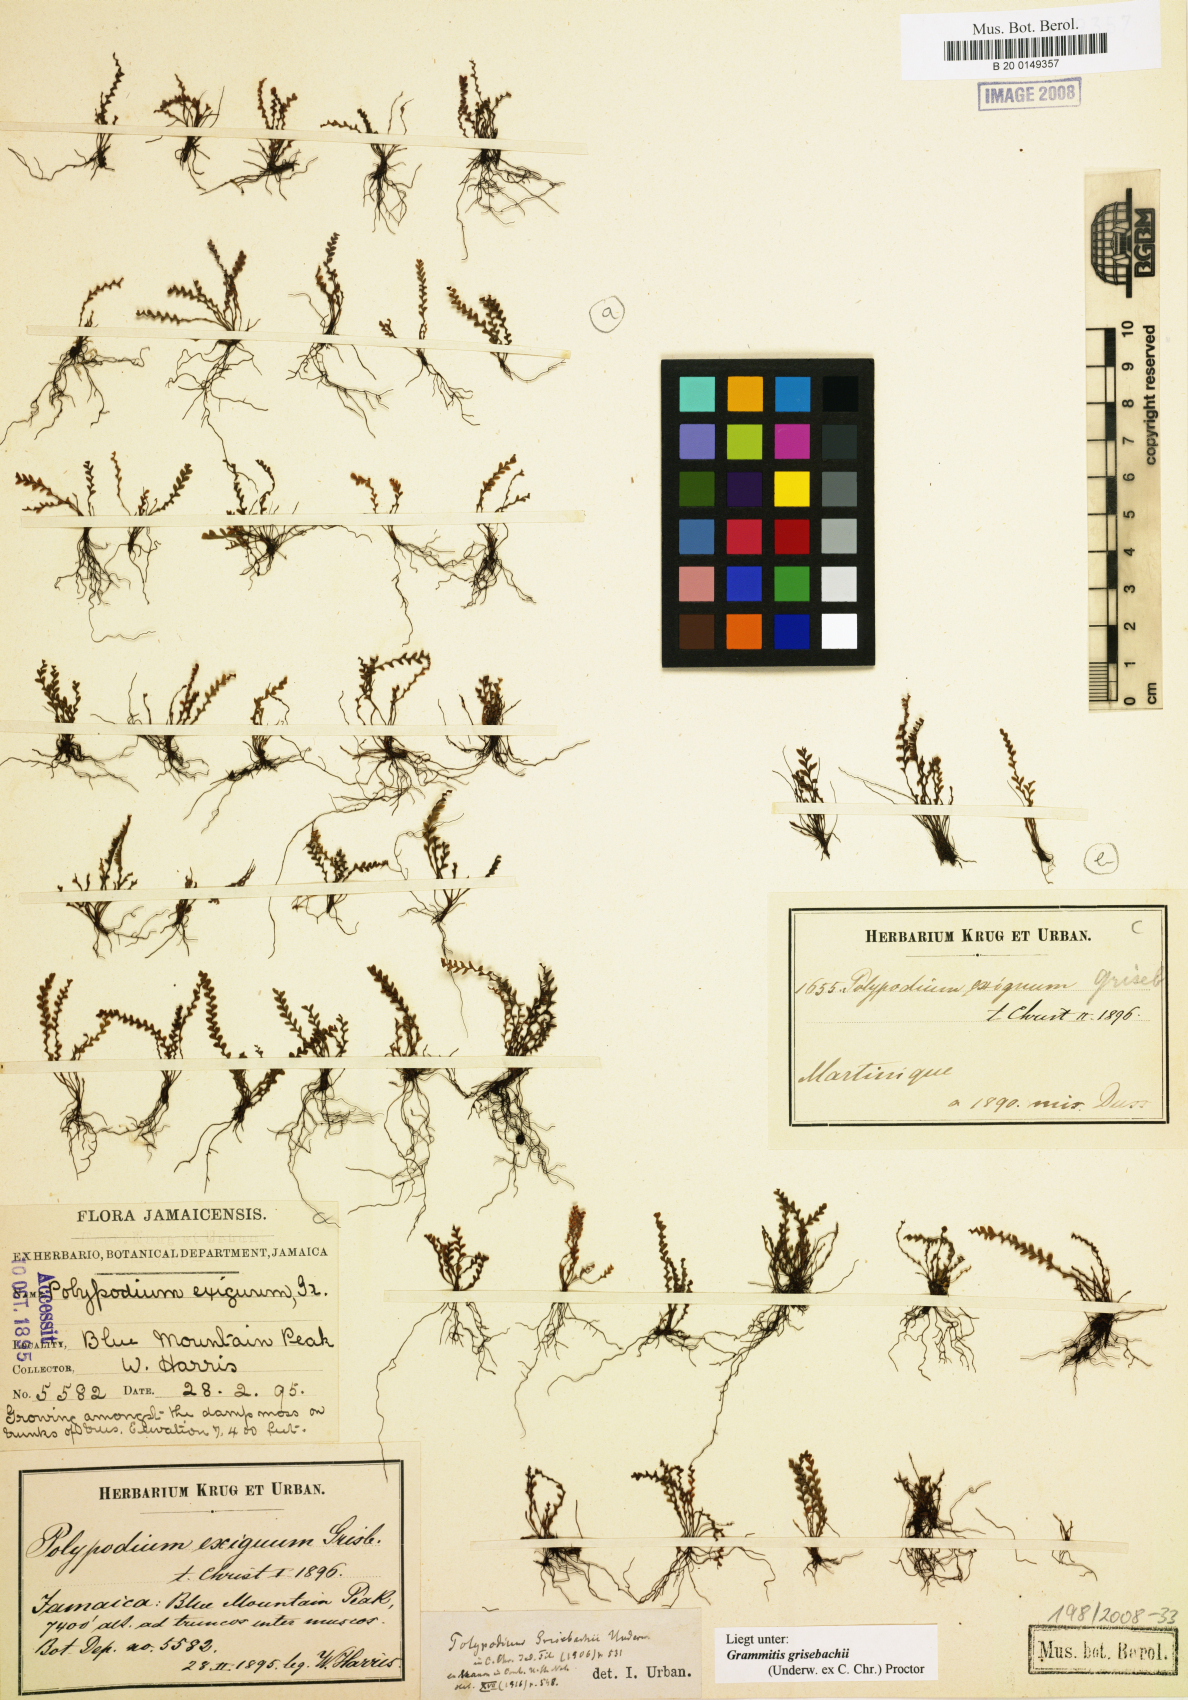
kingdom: Plantae
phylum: Tracheophyta
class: Polypodiopsida
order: Polypodiales
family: Polypodiaceae
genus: Moranopteris
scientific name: Moranopteris grisebachii
